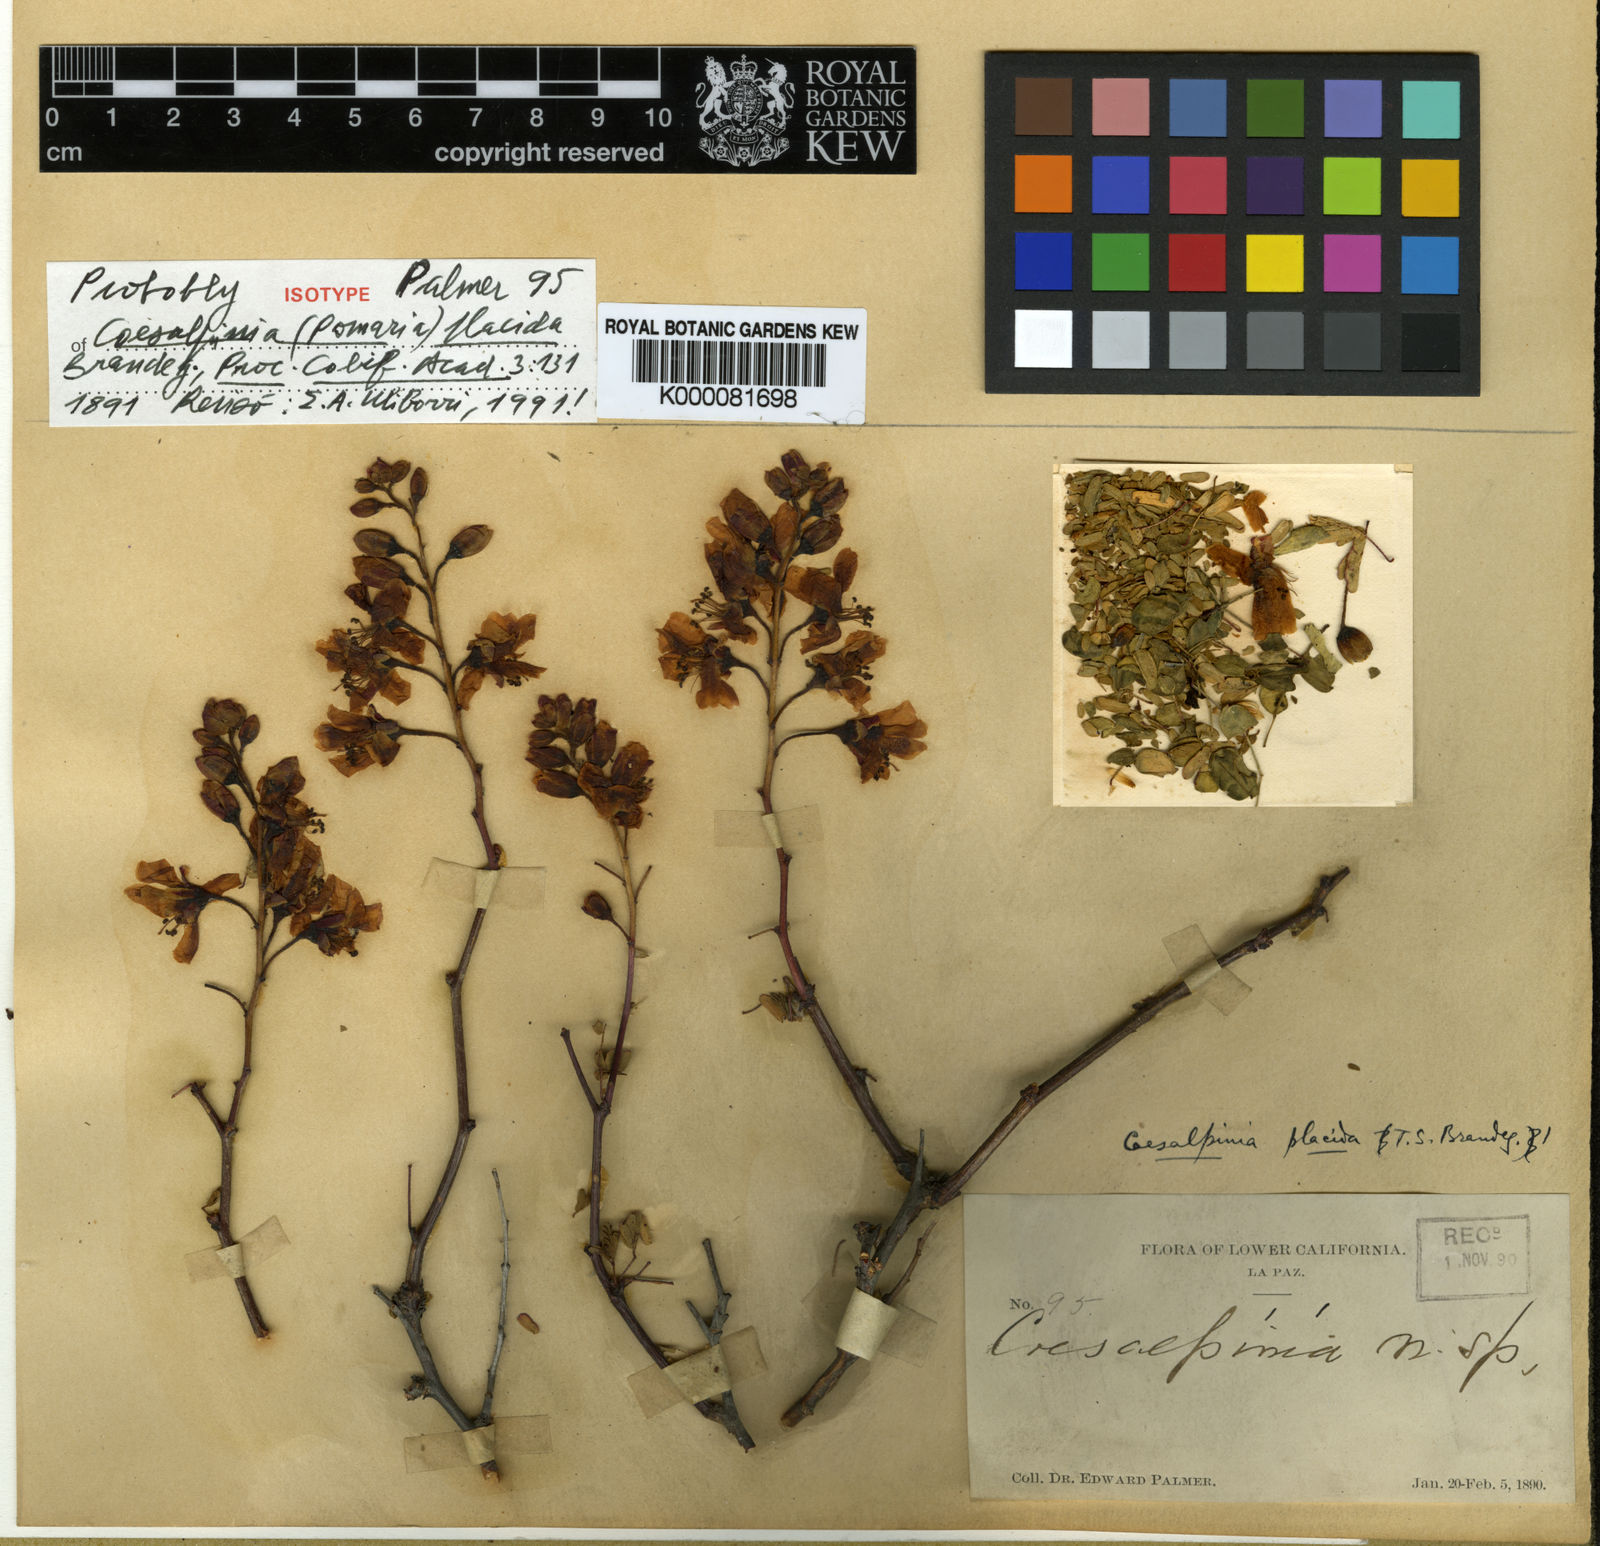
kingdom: Plantae
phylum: Tracheophyta
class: Magnoliopsida
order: Fabales
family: Fabaceae
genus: Caesalpinia
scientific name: Caesalpinia
